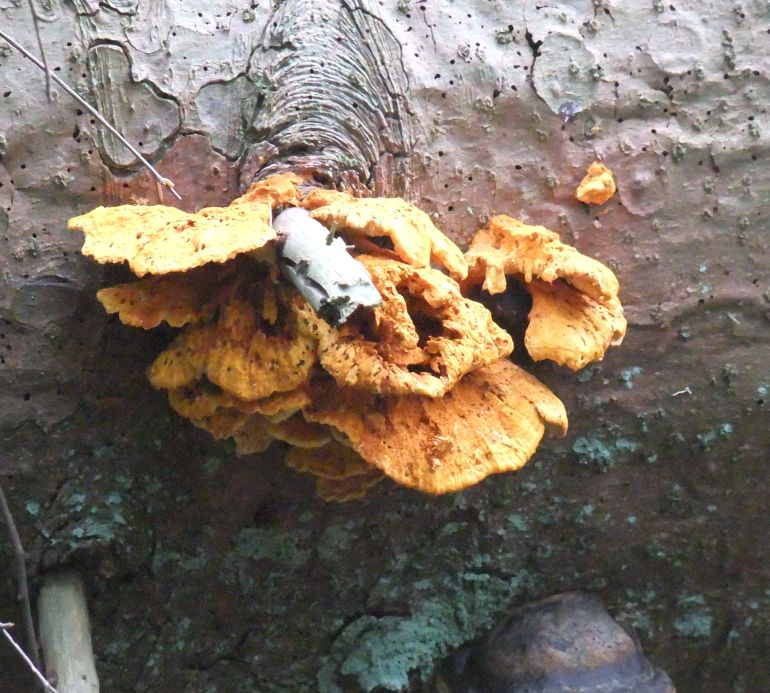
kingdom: Fungi
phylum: Basidiomycota
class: Agaricomycetes
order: Polyporales
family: Pycnoporellaceae
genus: Pycnoporellus
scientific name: Pycnoporellus fulgens
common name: flammeporesvamp
